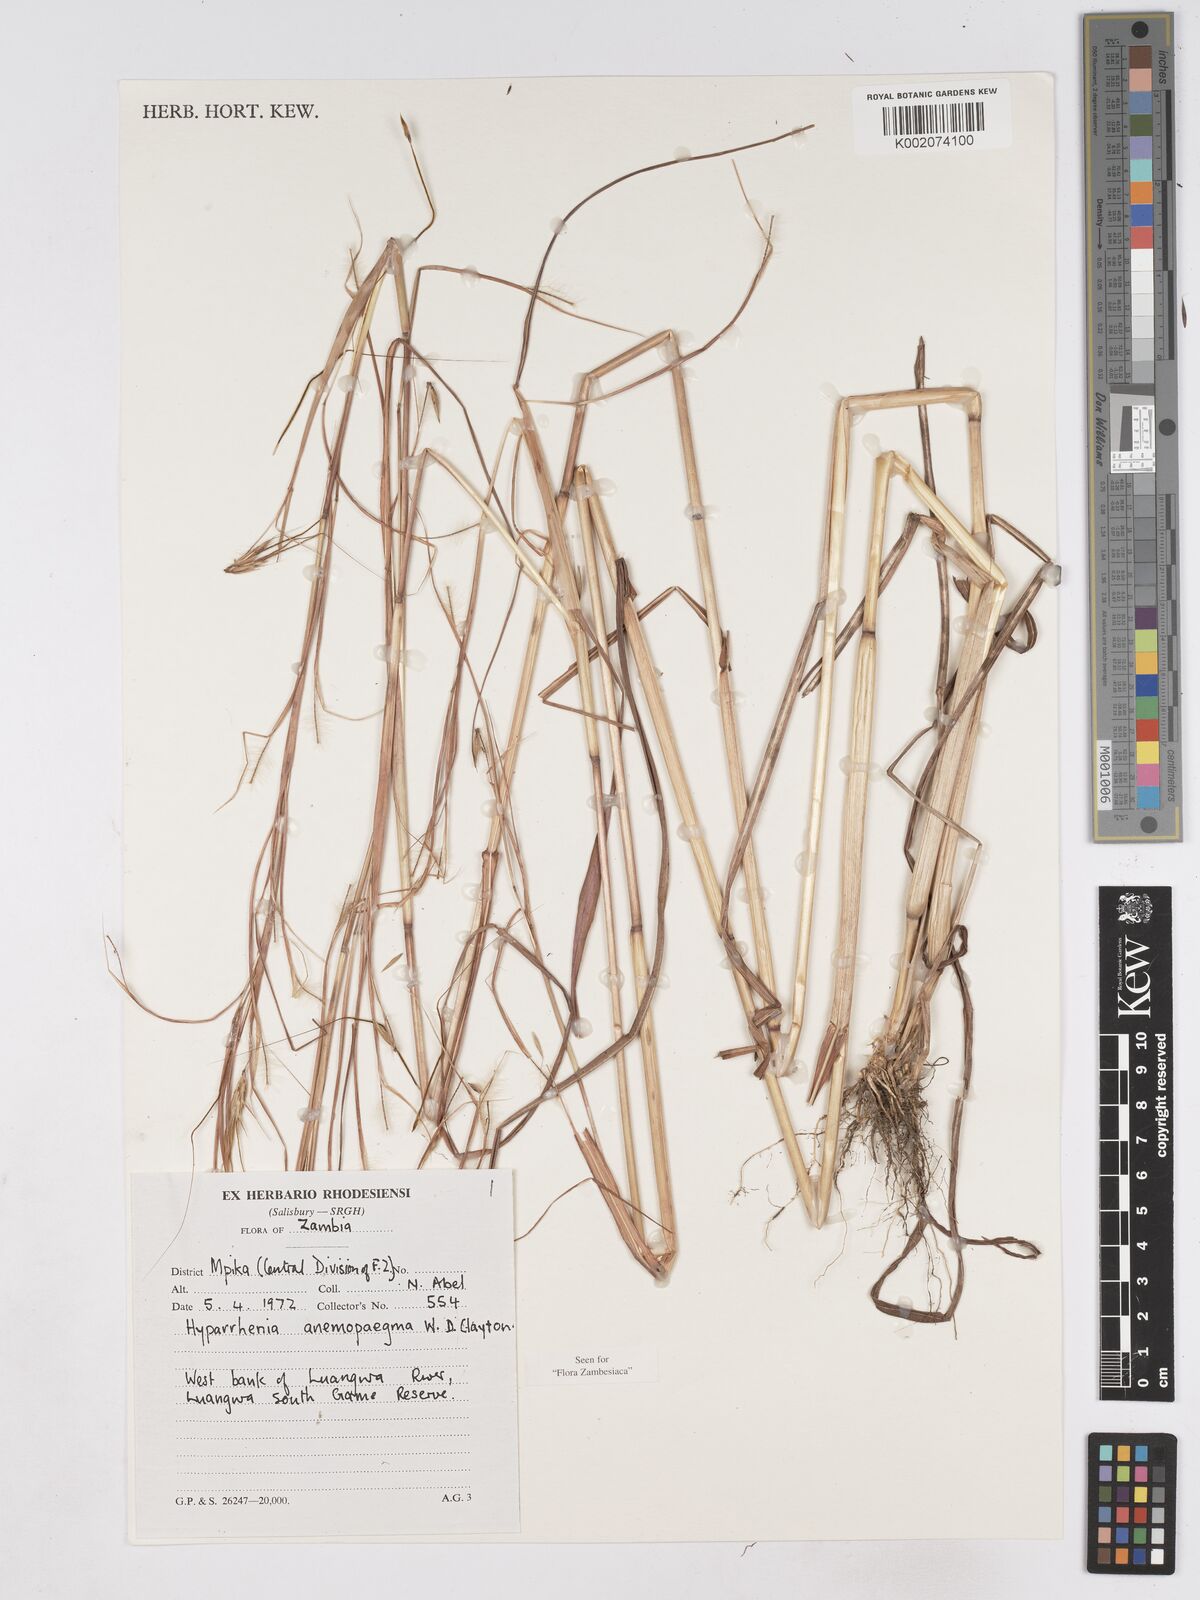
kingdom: Plantae
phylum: Tracheophyta
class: Liliopsida
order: Poales
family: Poaceae
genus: Hyparrhenia
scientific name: Hyparrhenia anemopaegma
